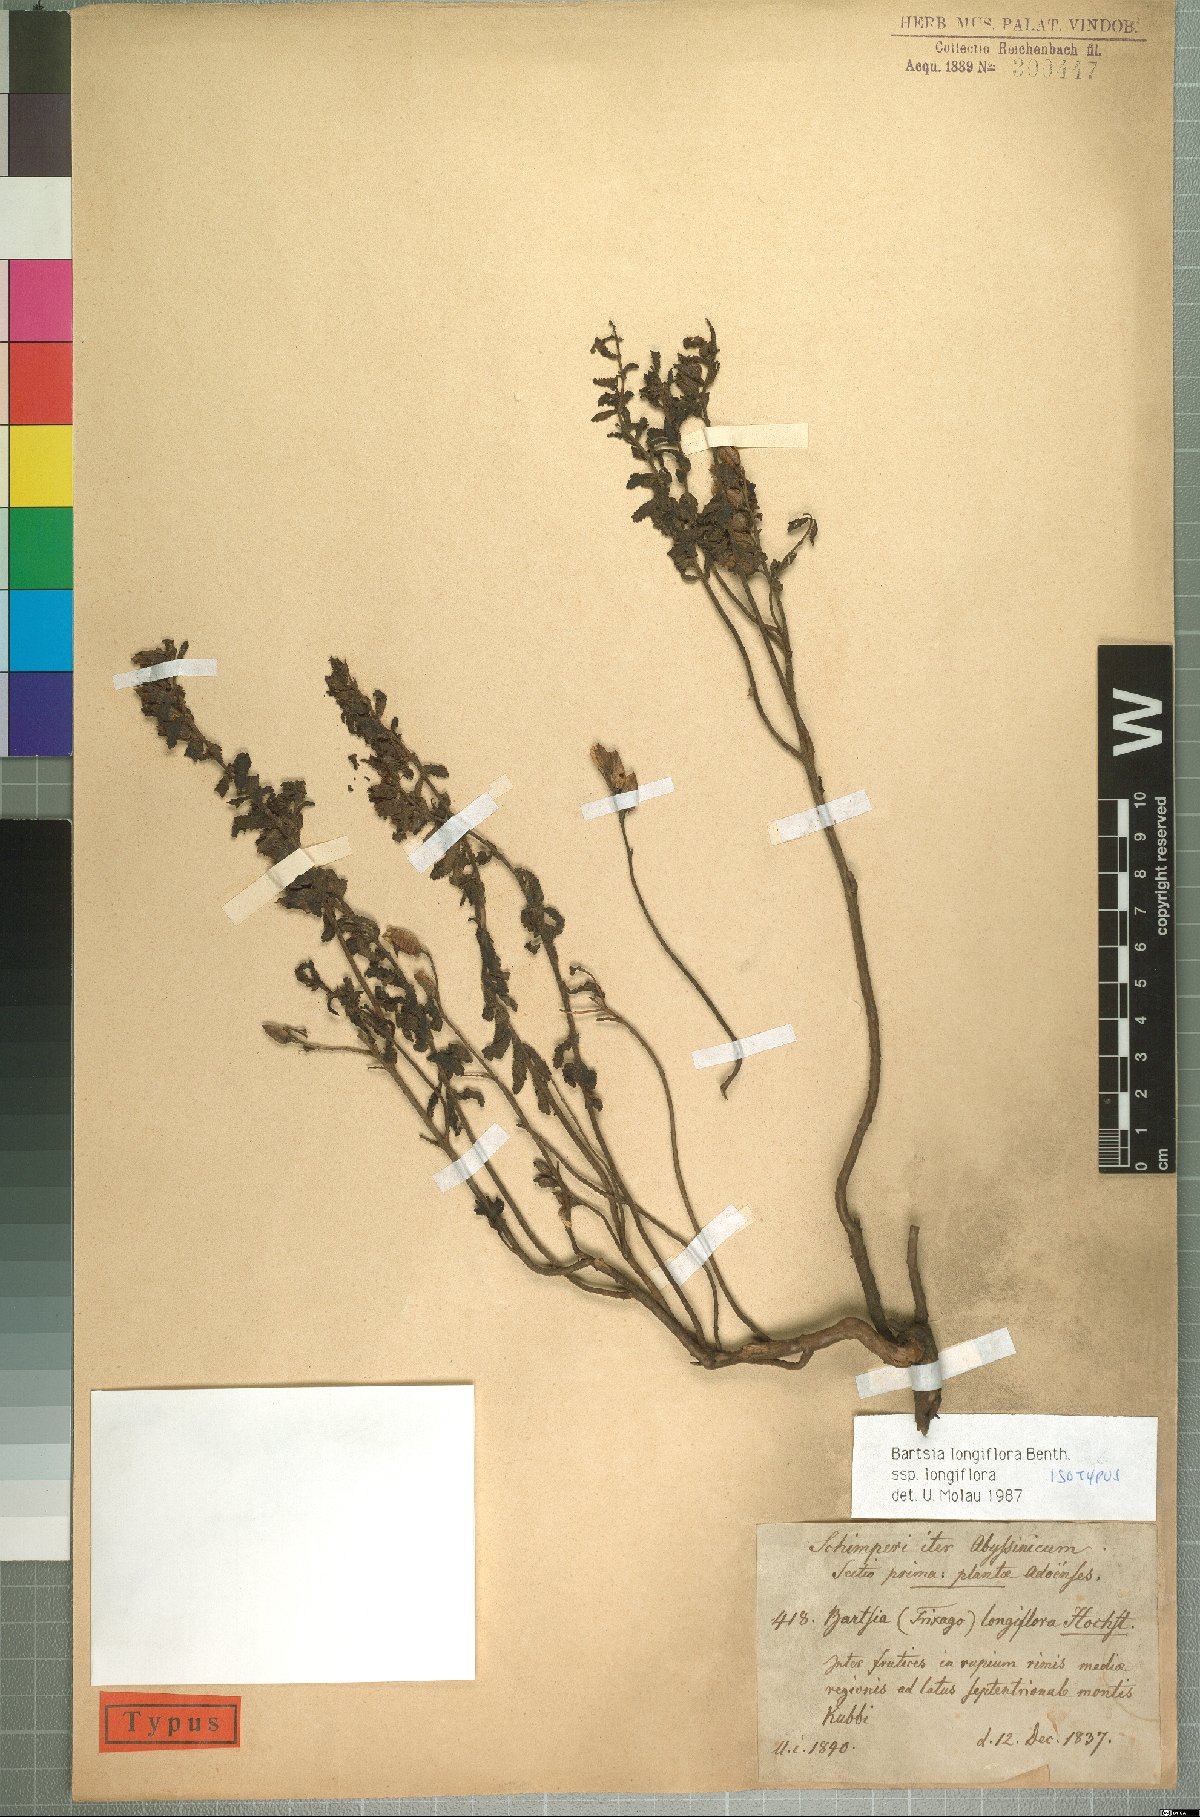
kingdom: Plantae
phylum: Tracheophyta
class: Magnoliopsida
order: Lamiales
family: Orobanchaceae
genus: Hedbergia
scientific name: Hedbergia longiflora
